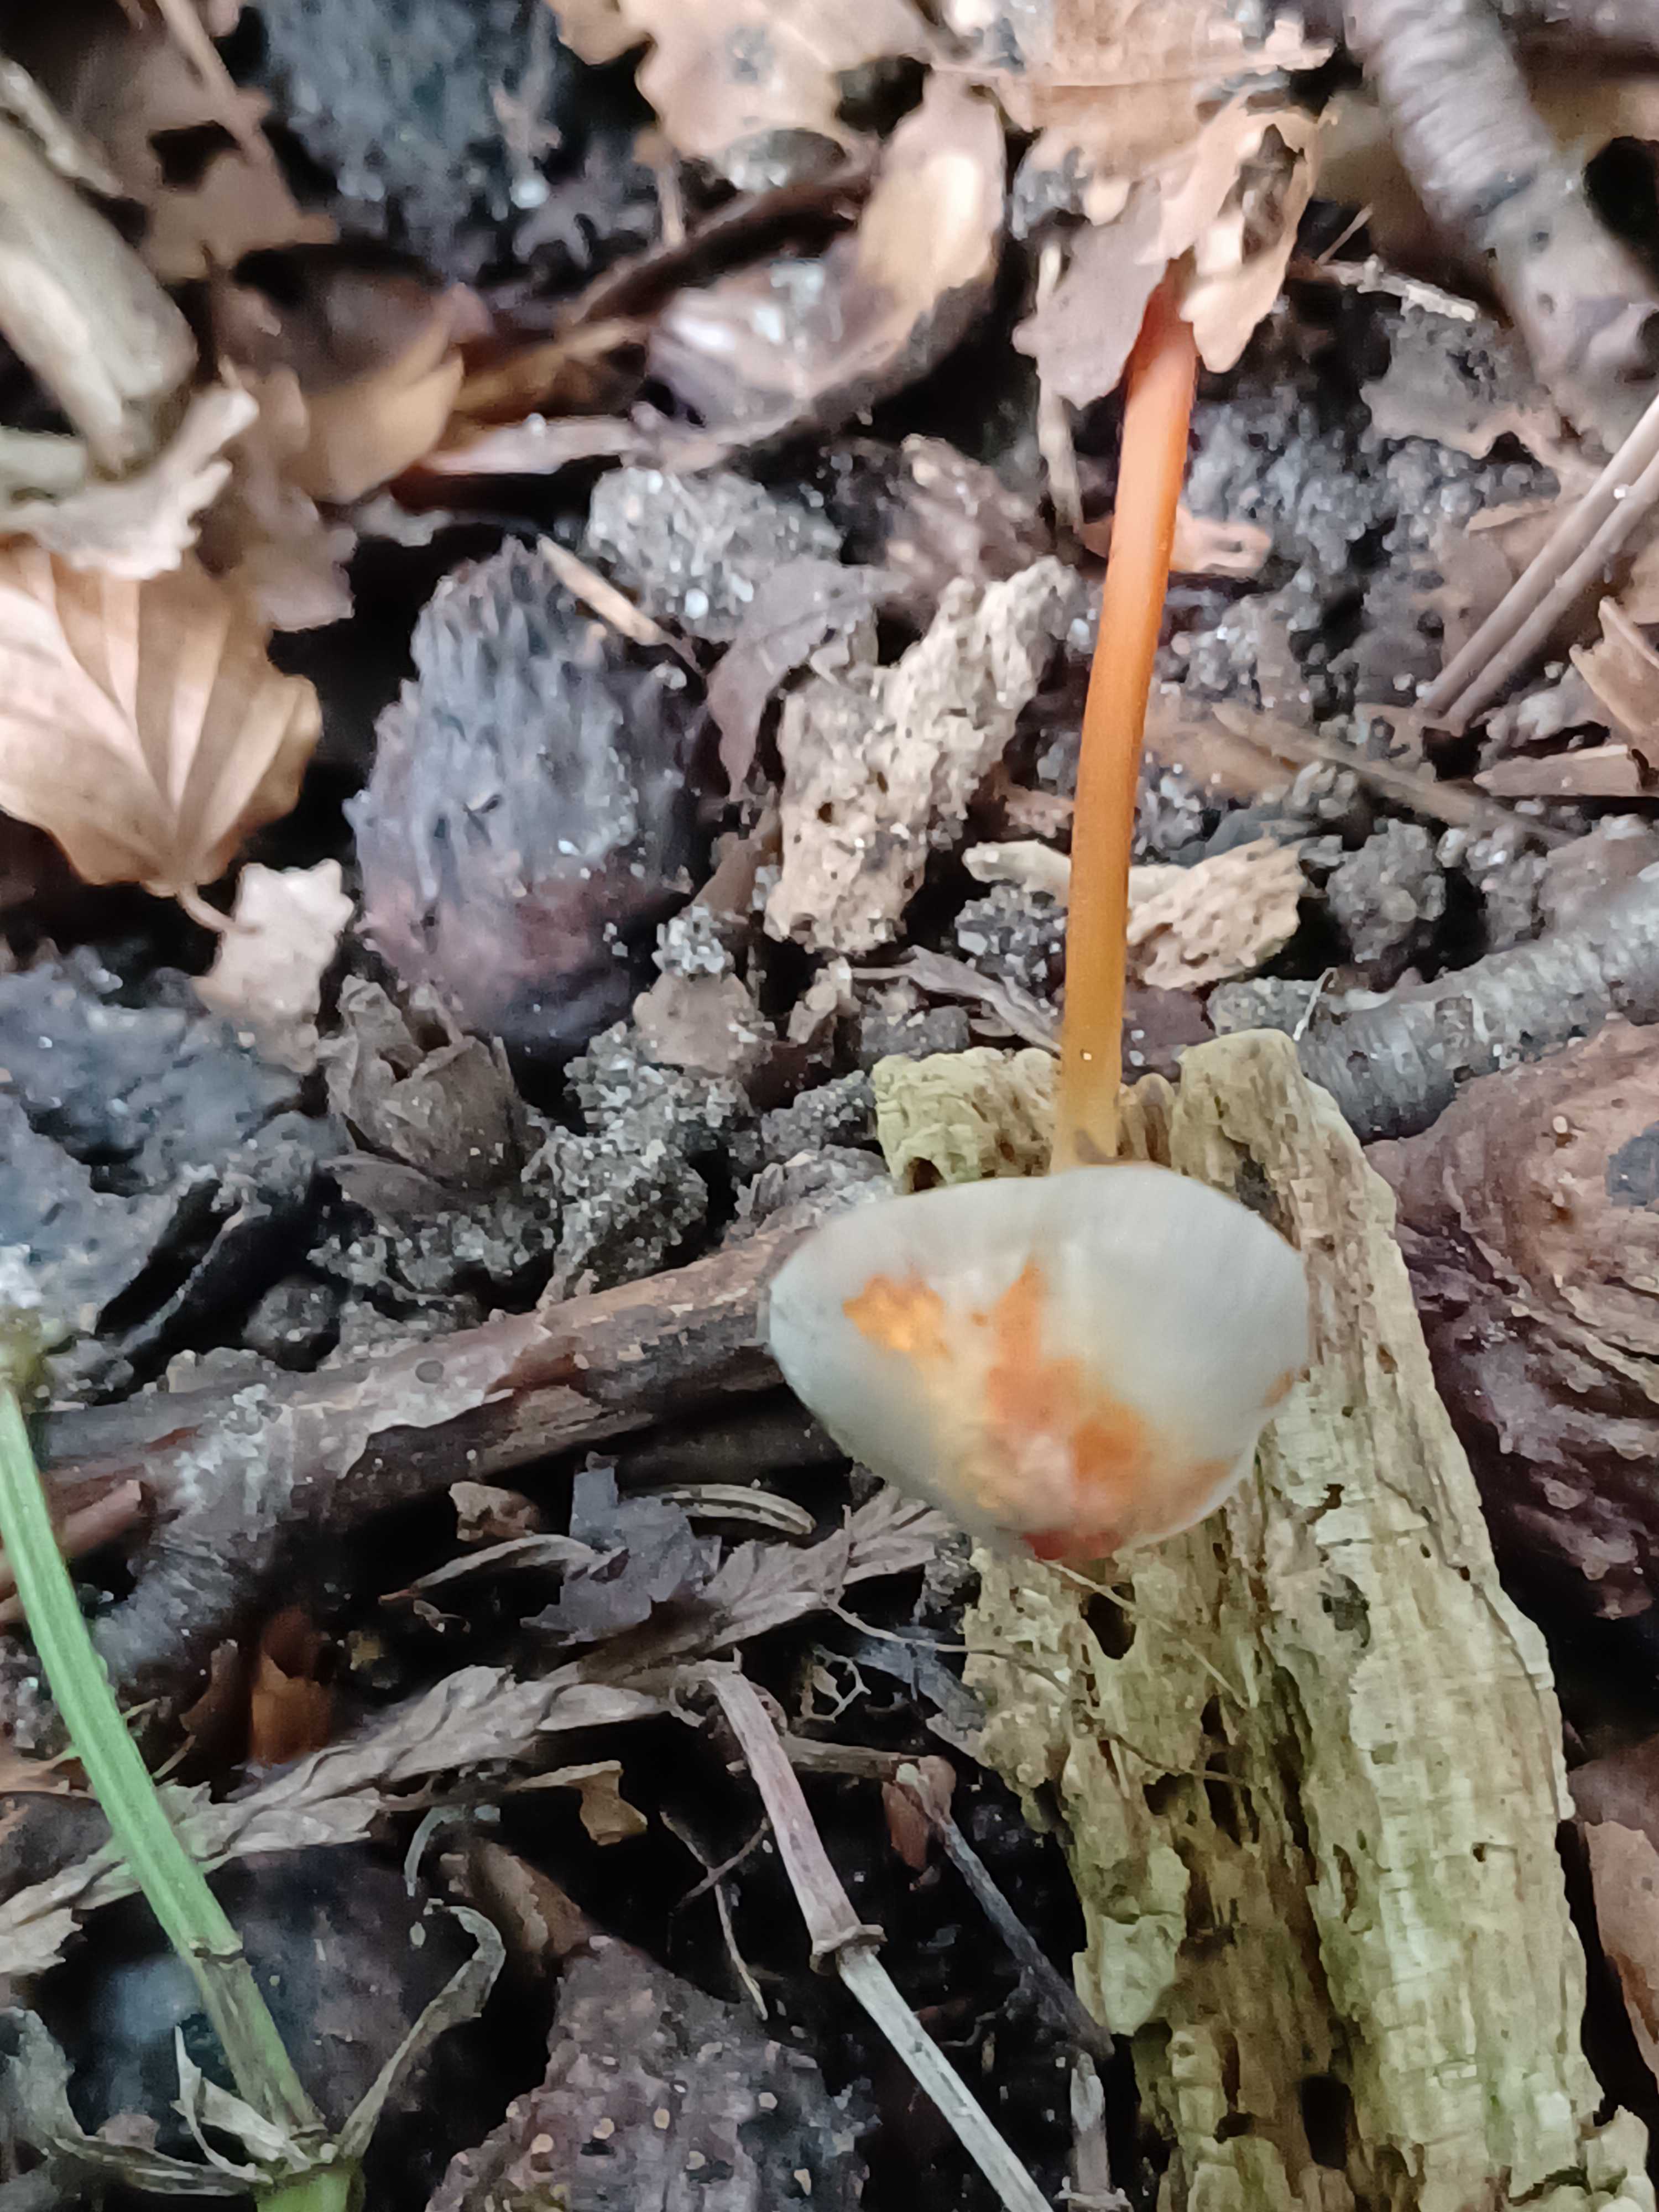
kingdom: Fungi
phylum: Basidiomycota
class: Agaricomycetes
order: Agaricales
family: Mycenaceae
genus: Mycena
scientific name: Mycena crocata
